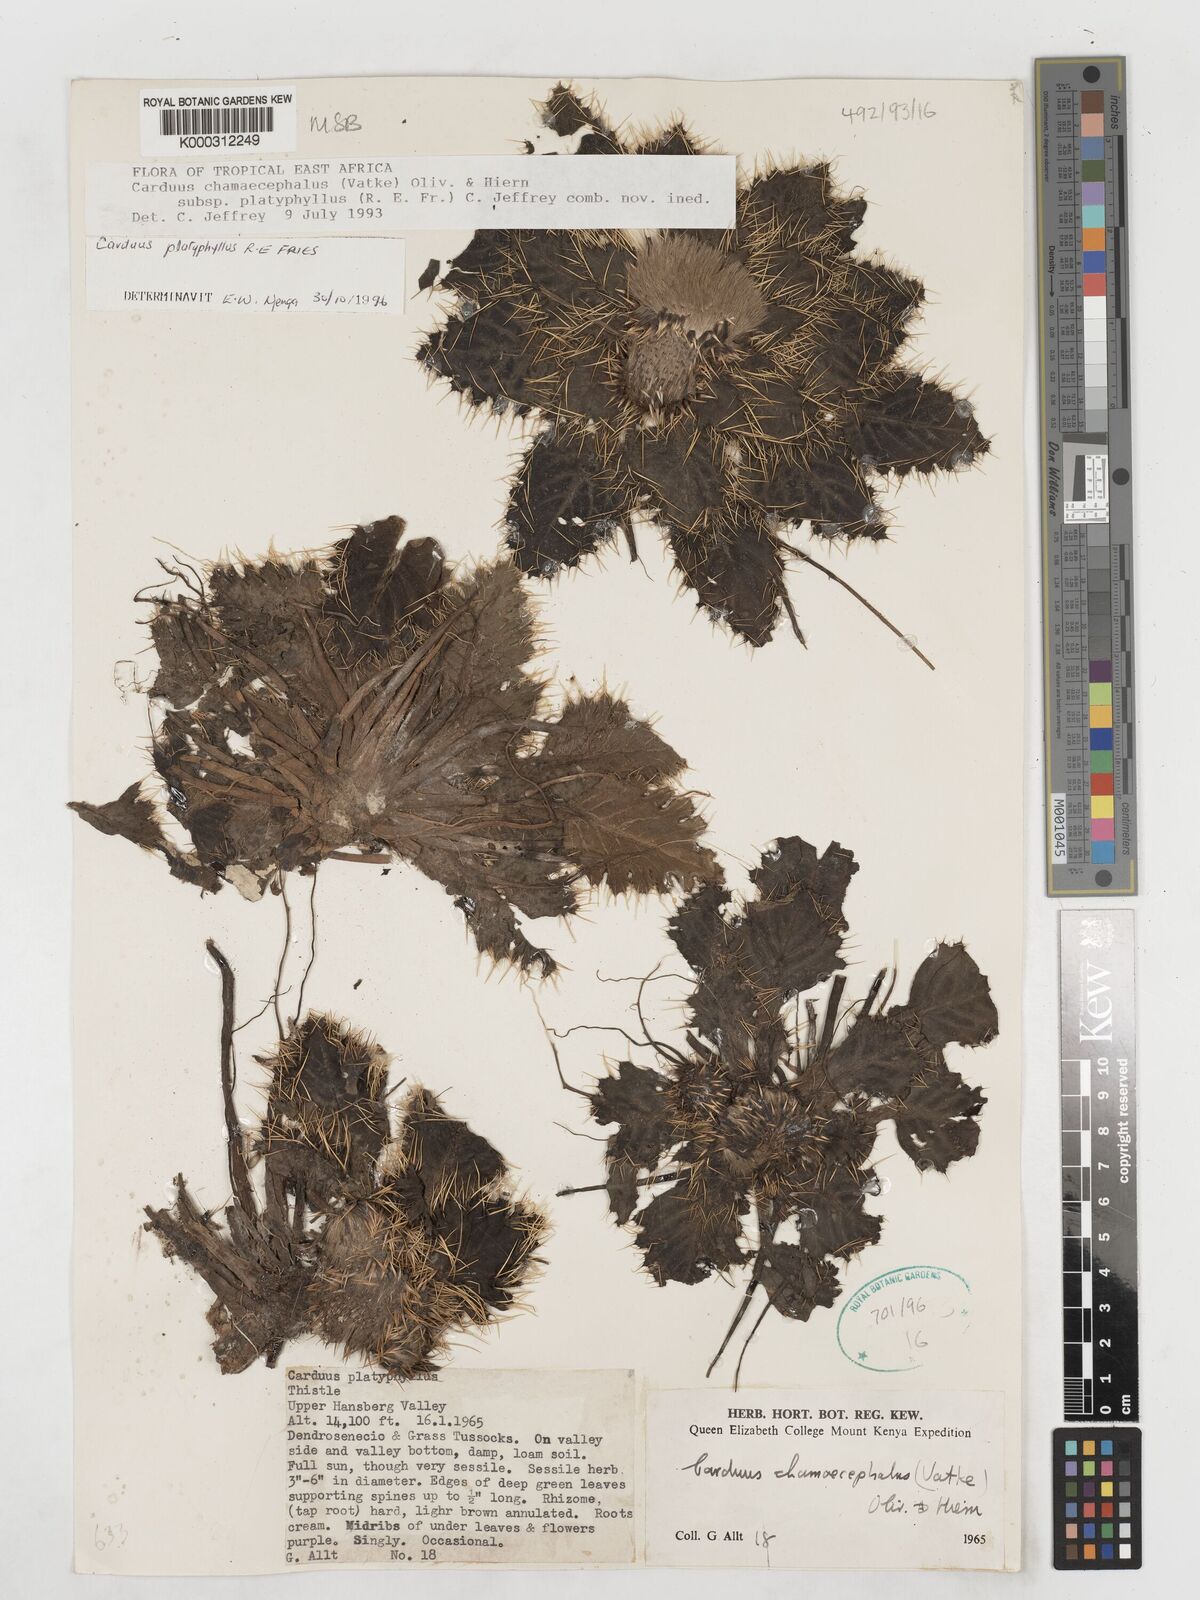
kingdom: Plantae
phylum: Tracheophyta
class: Magnoliopsida
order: Asterales
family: Asteraceae
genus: Carduus
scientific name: Carduus schimperi
